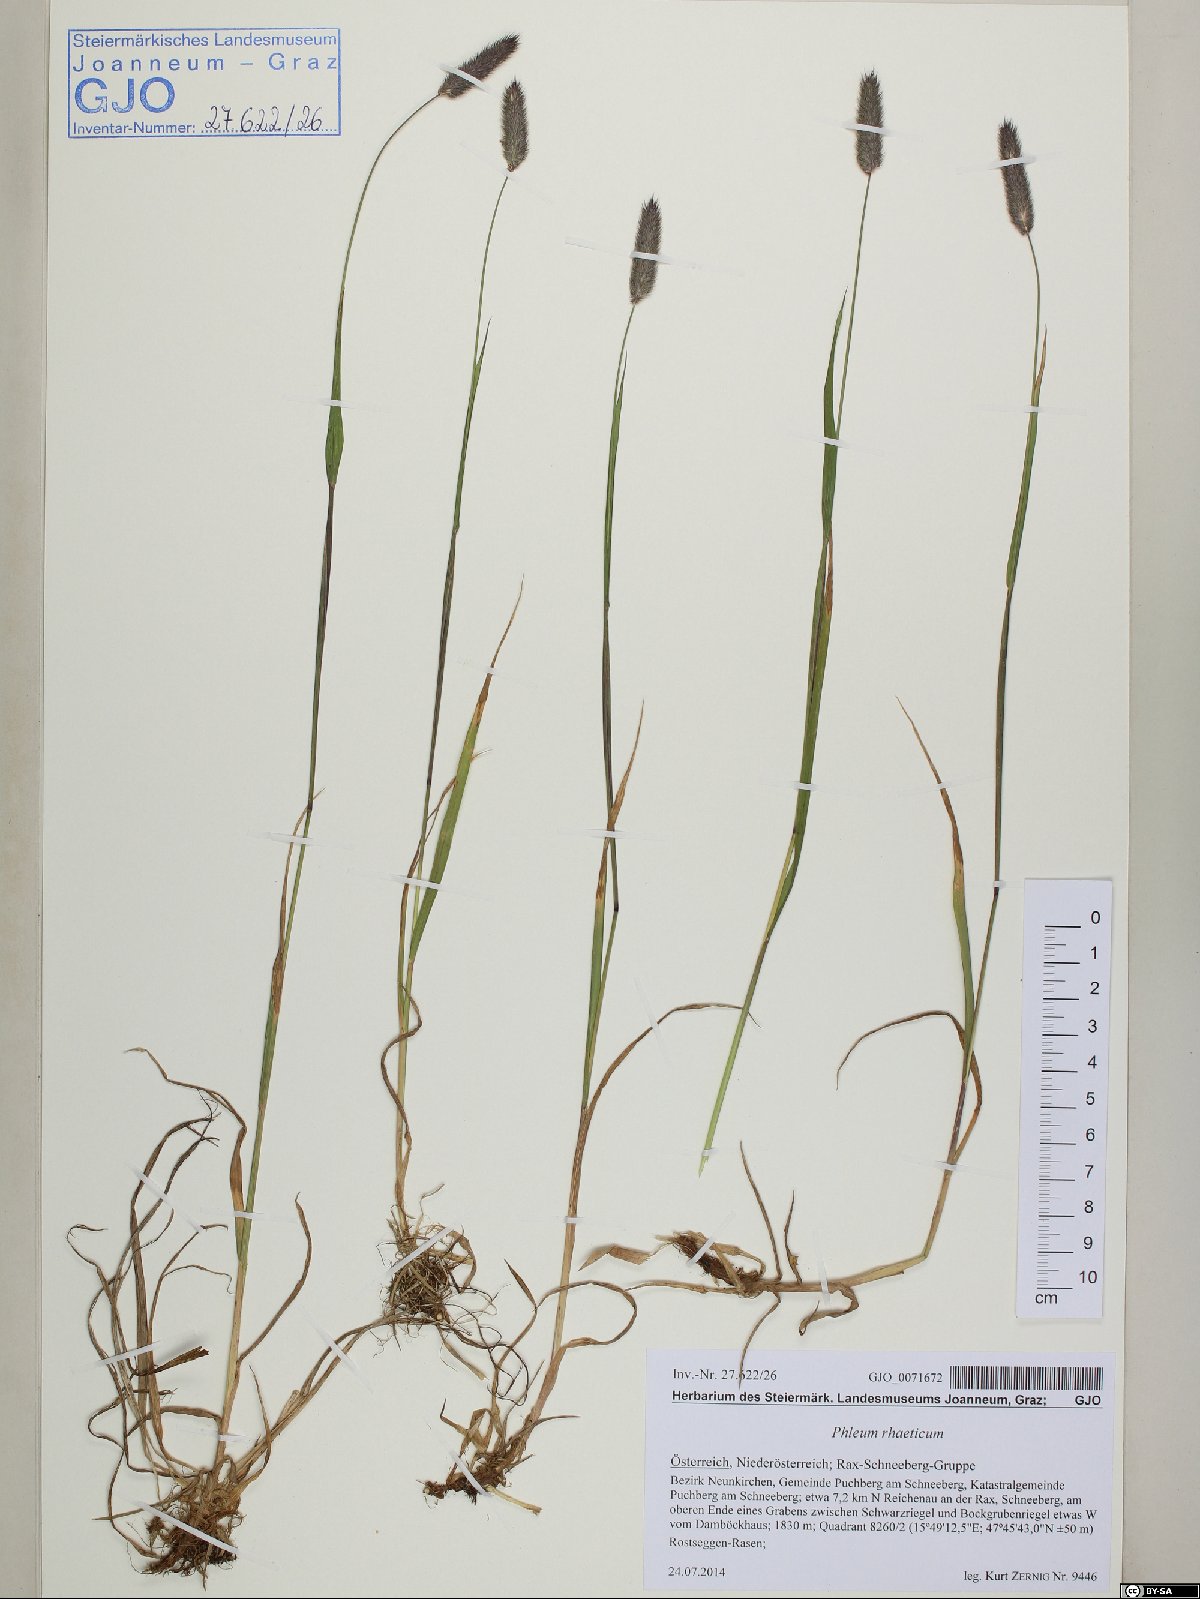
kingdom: Plantae
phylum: Tracheophyta
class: Liliopsida
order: Poales
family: Poaceae
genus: Phleum
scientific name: Phleum alpinum
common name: Alpine cat's-tail
